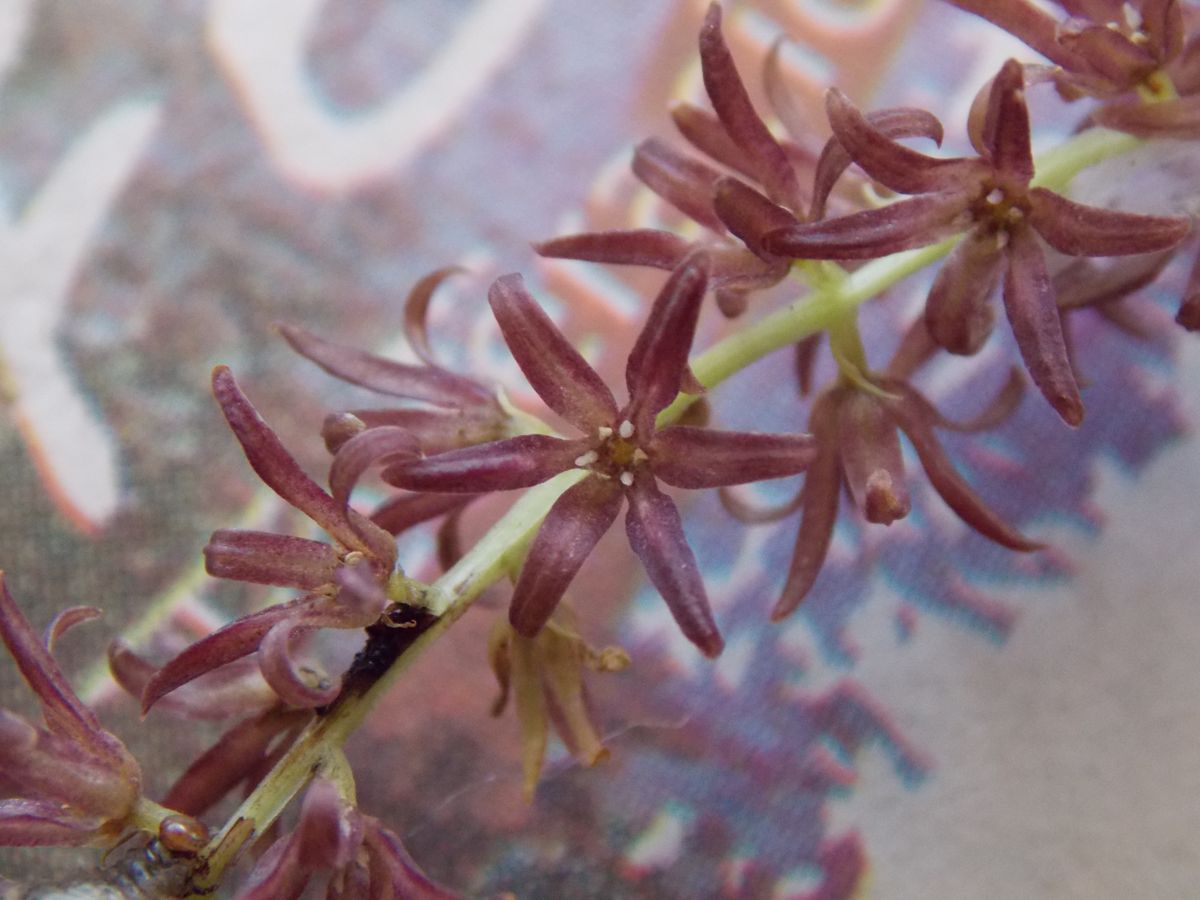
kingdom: Plantae
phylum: Tracheophyta
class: Liliopsida
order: Dioscoreales
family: Dioscoreaceae
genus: Dioscorea
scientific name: Dioscorea carionis
